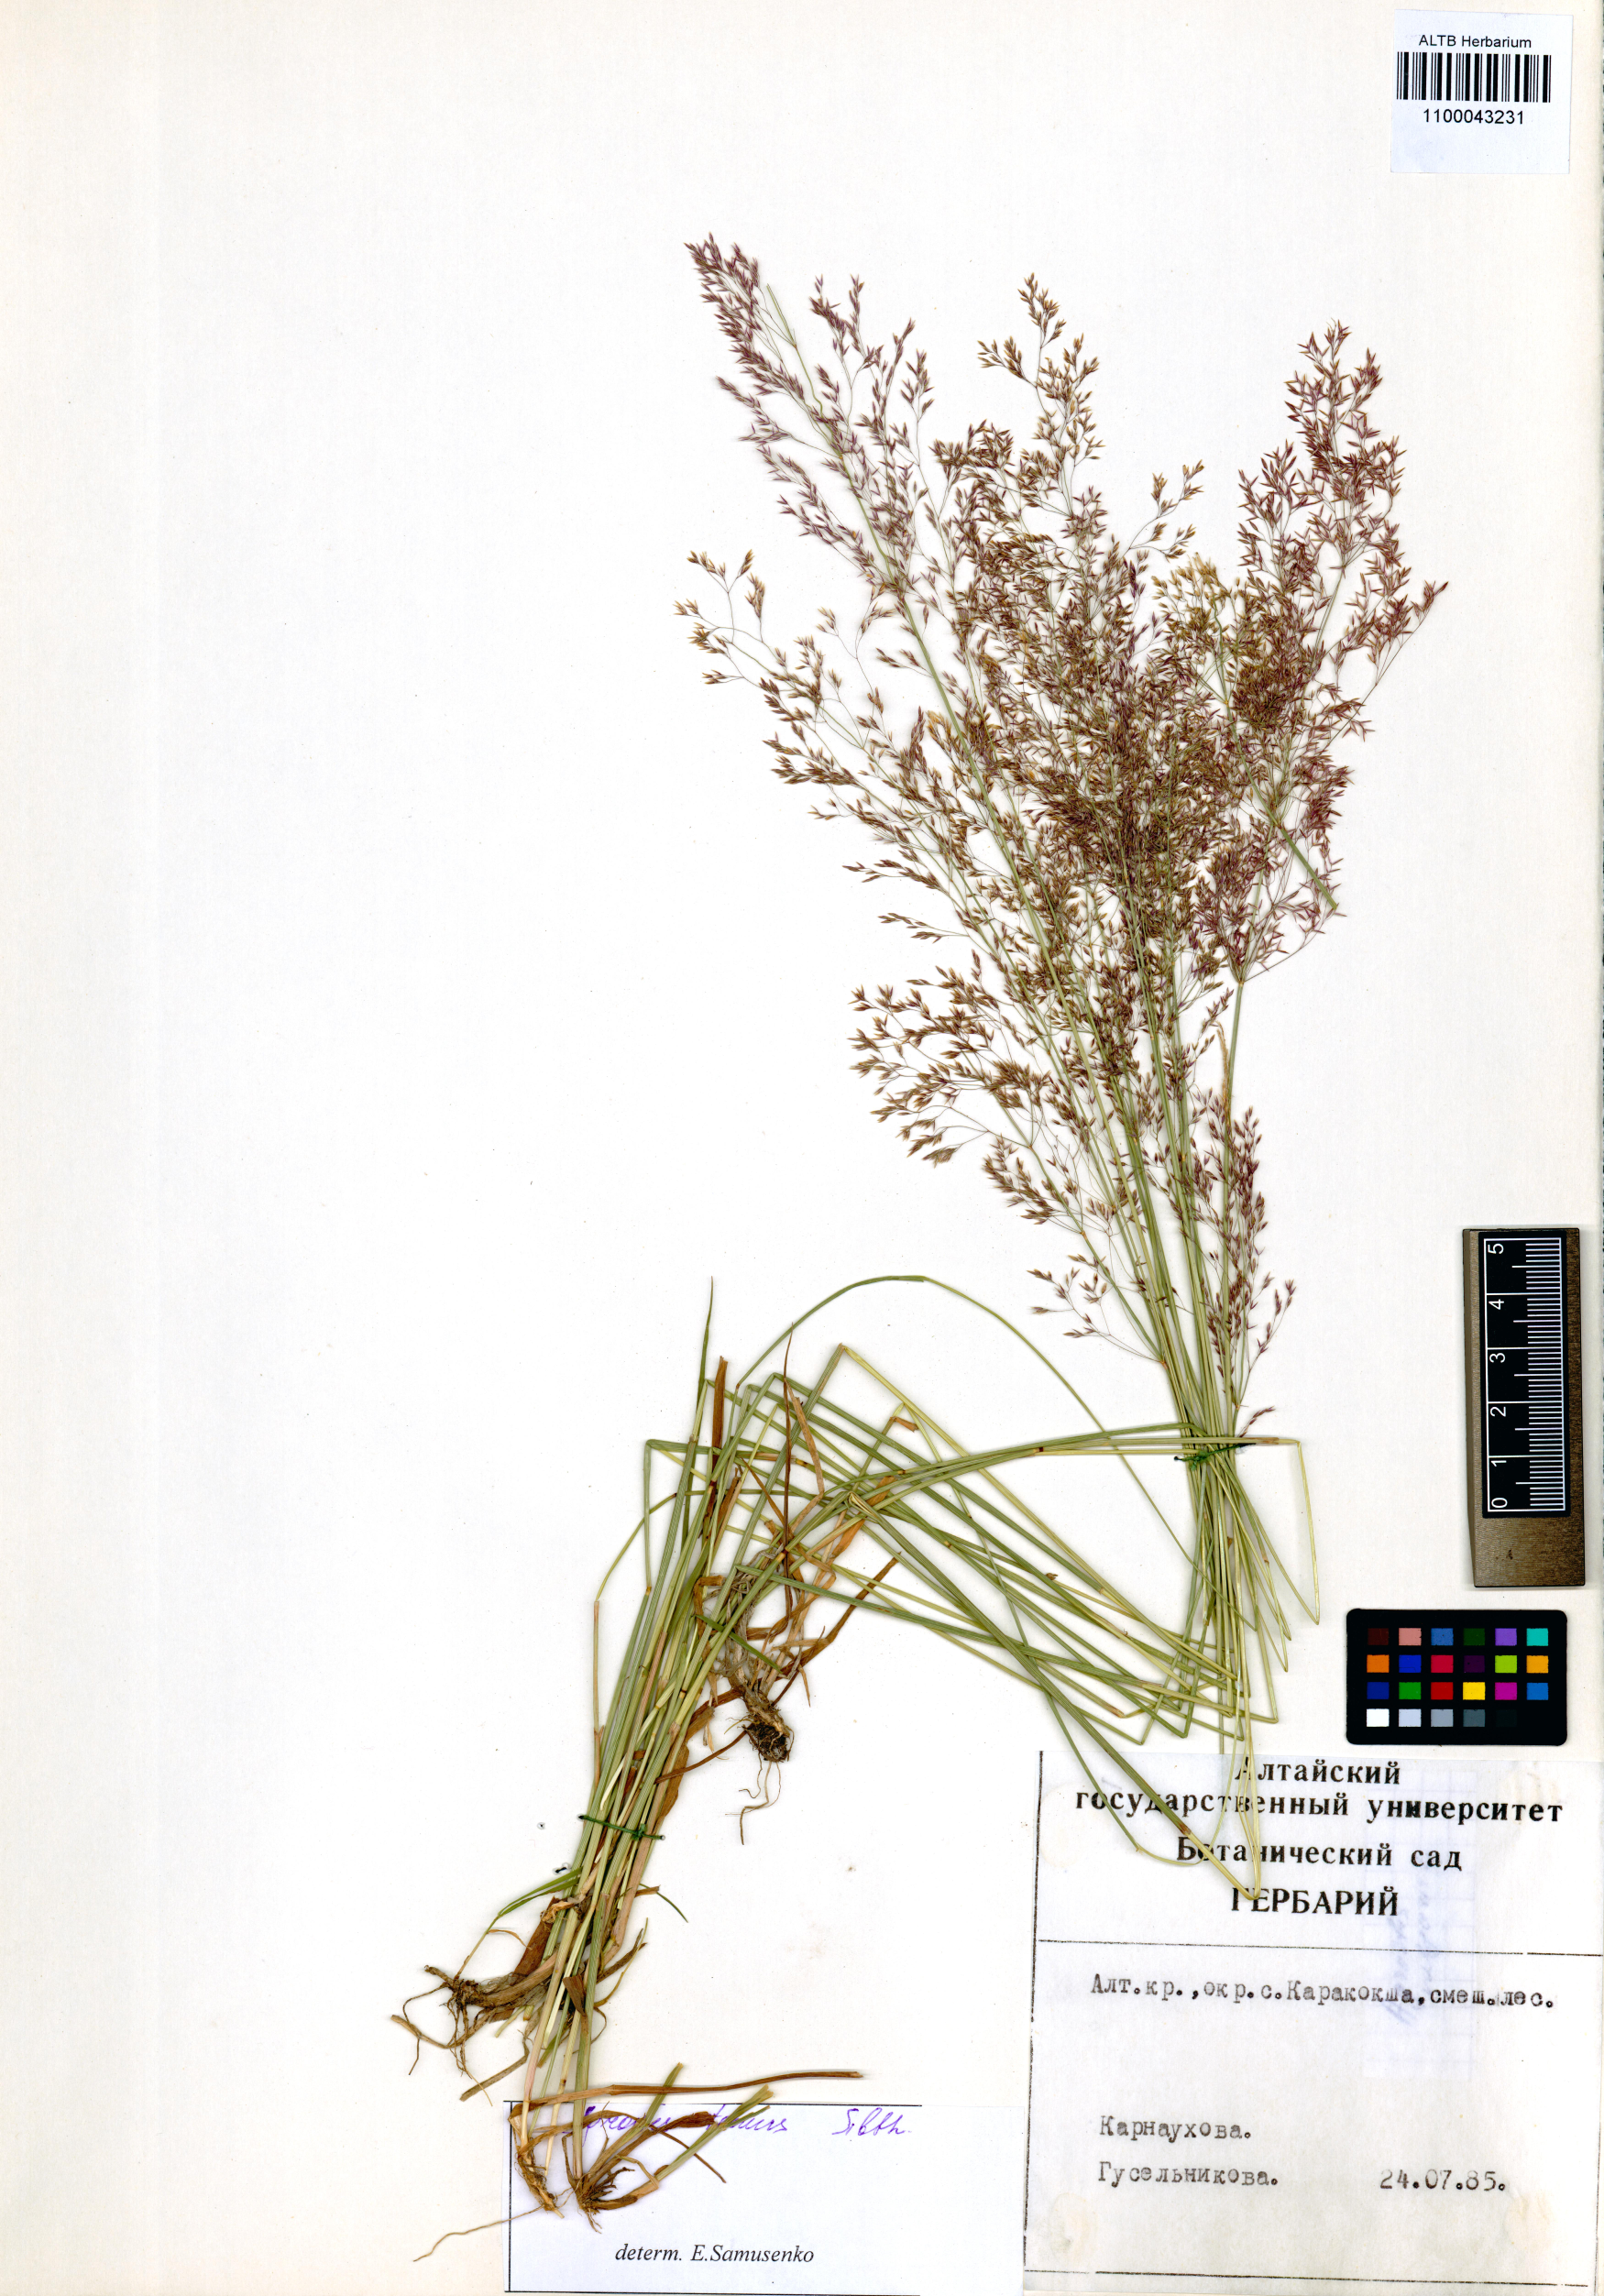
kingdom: Plantae
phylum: Tracheophyta
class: Liliopsida
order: Poales
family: Poaceae
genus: Agrostis
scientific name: Agrostis capillaris
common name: Colonial bentgrass
